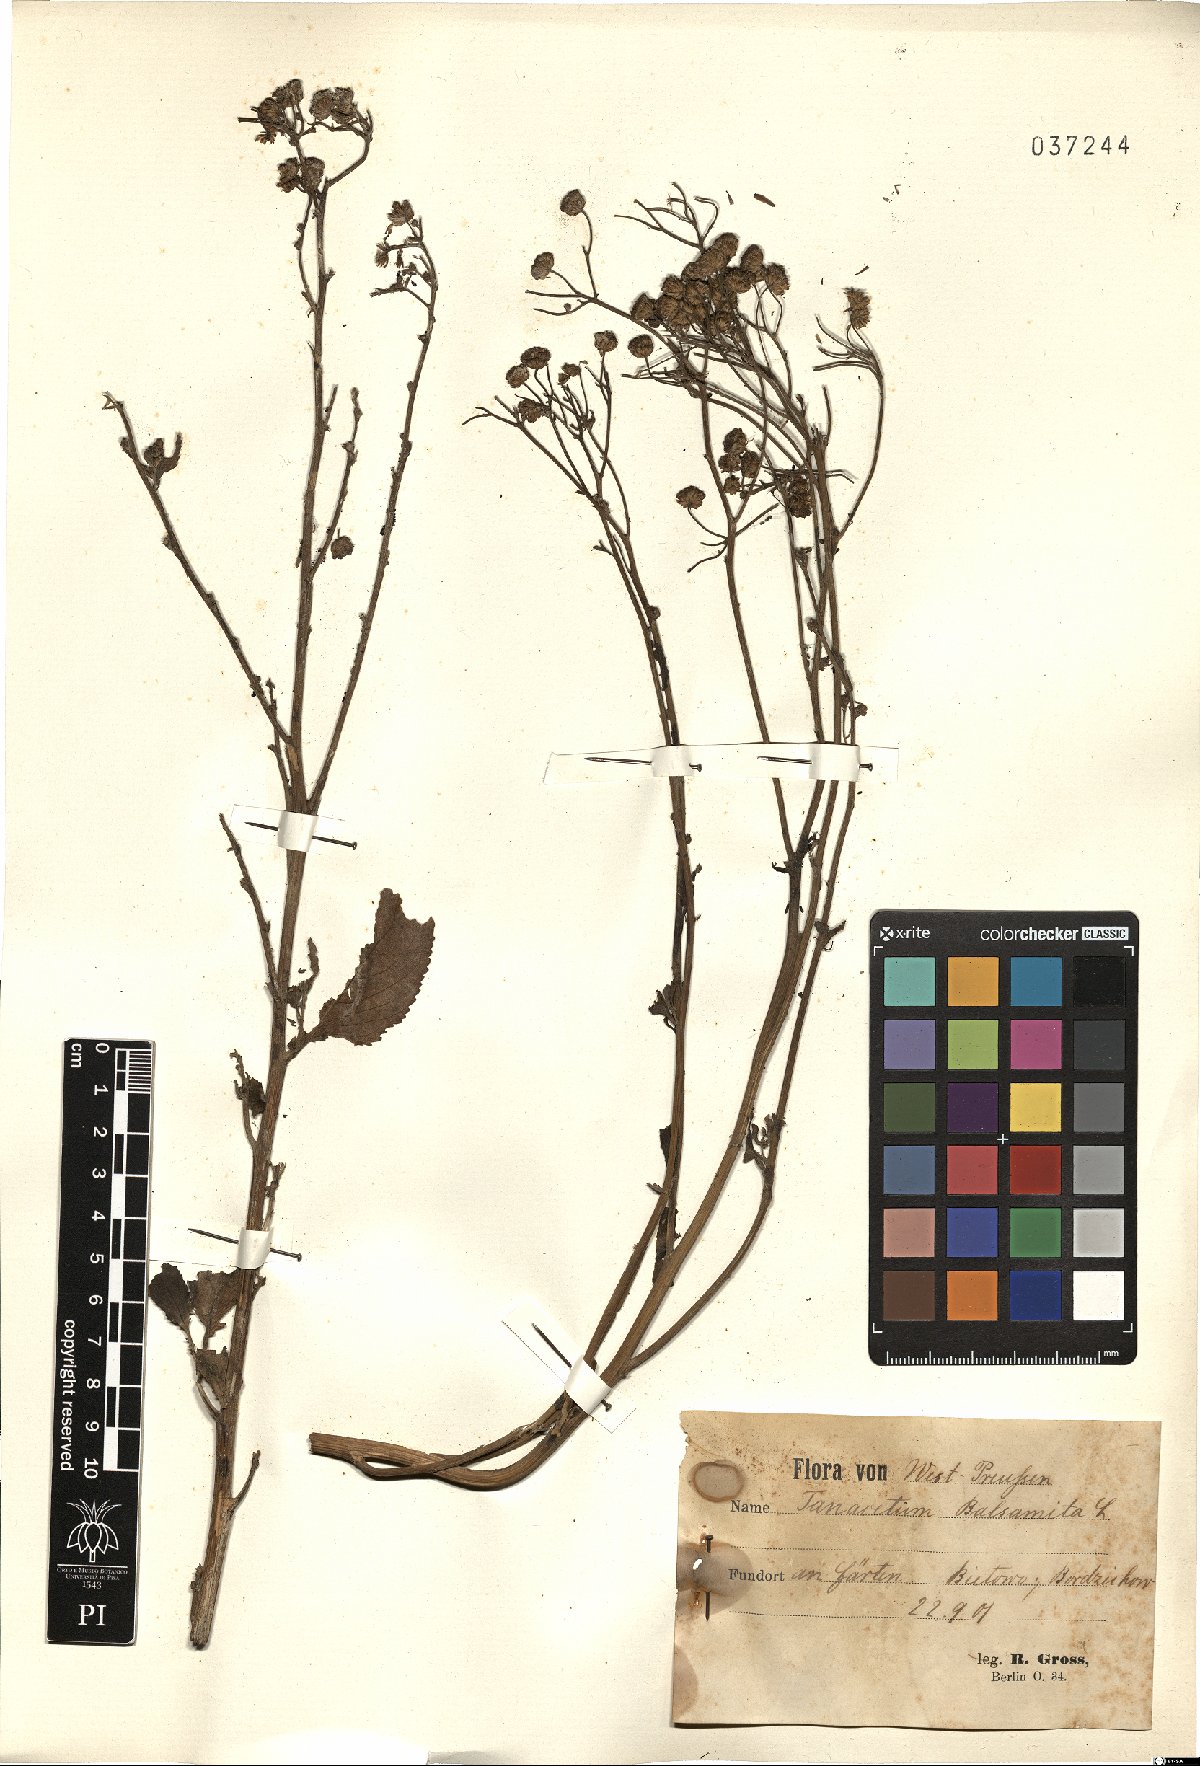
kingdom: Plantae
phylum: Tracheophyta
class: Magnoliopsida
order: Asterales
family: Asteraceae
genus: Tanacetum
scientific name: Tanacetum balsamita
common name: Costmary
